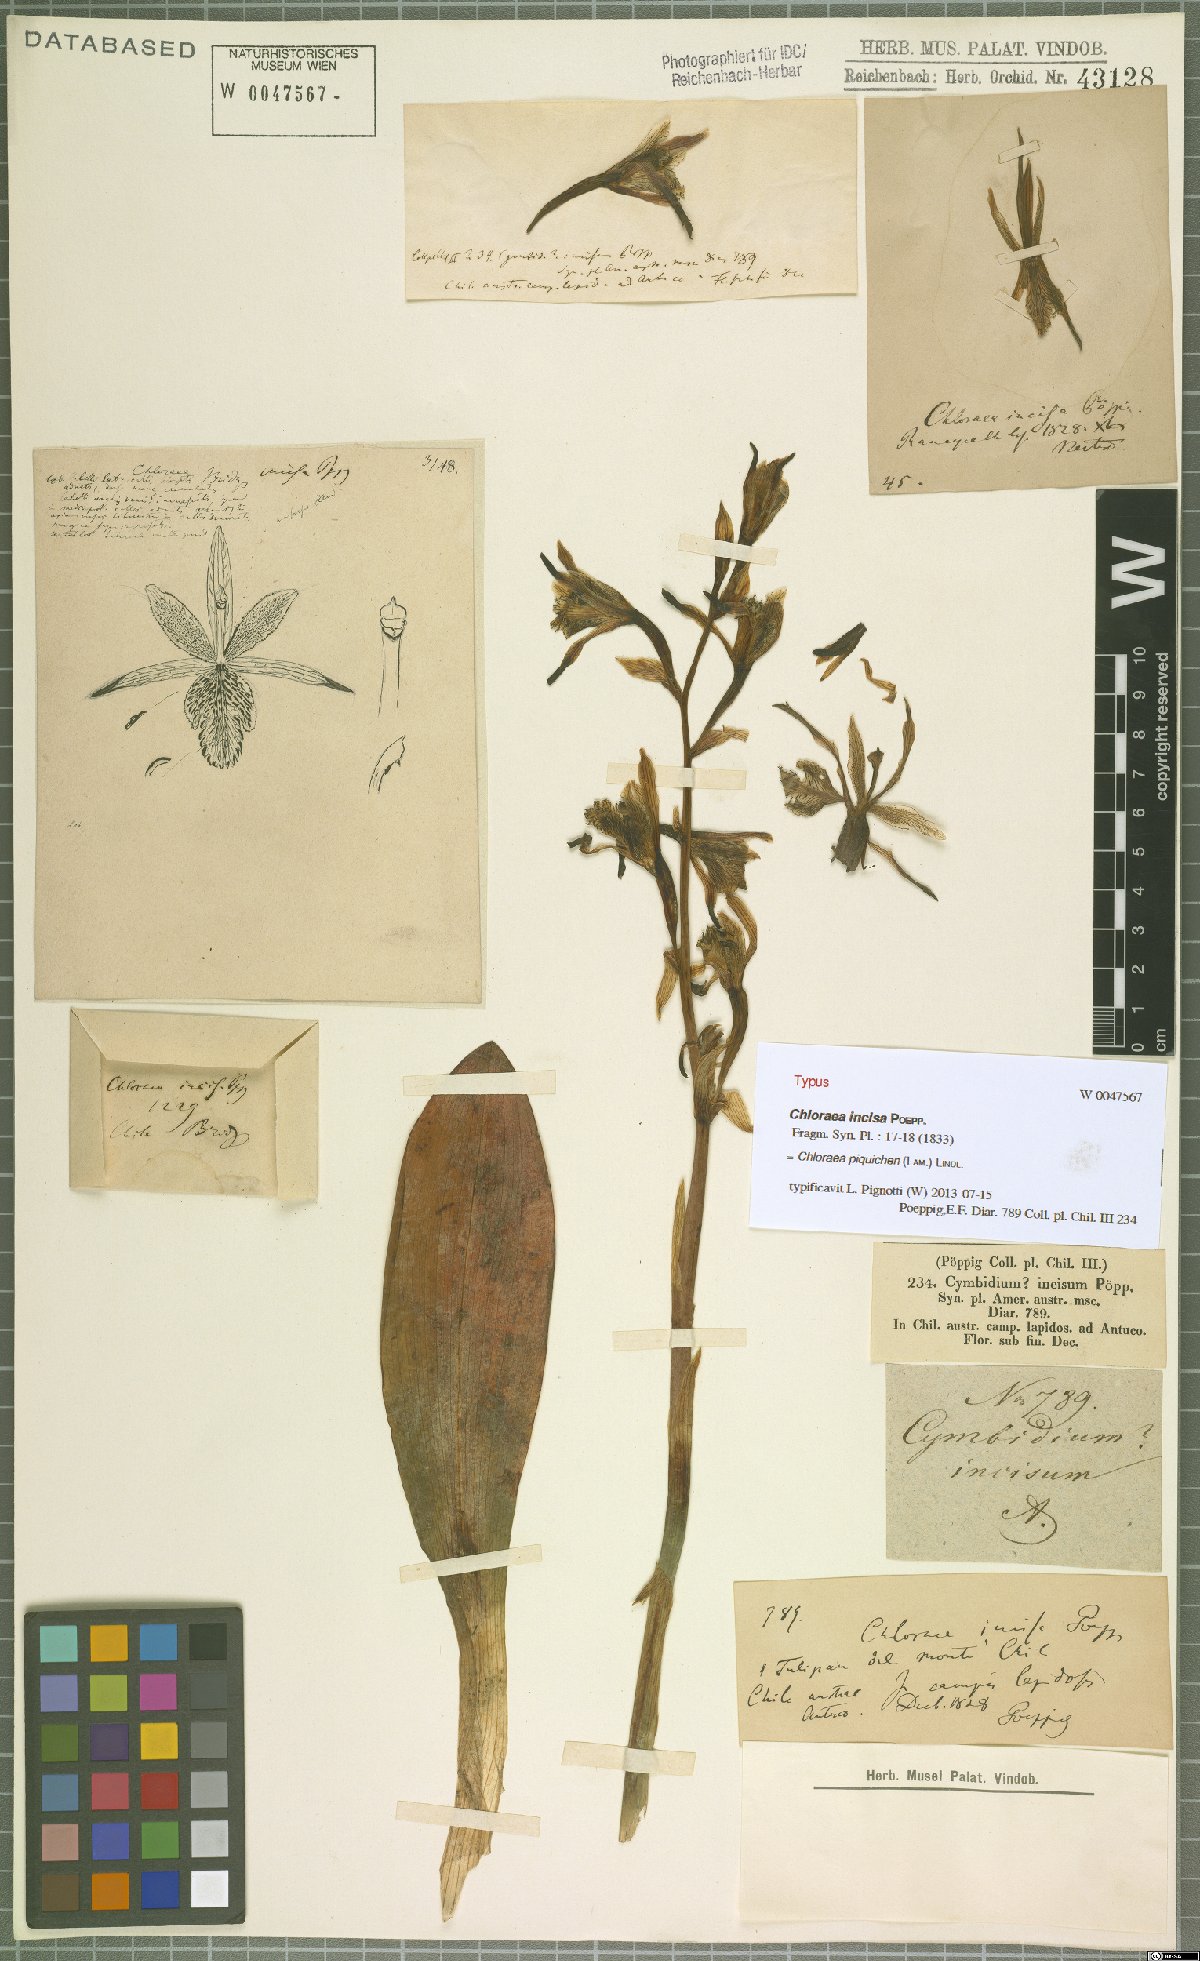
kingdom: Plantae
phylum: Tracheophyta
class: Liliopsida
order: Asparagales
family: Orchidaceae
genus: Chloraea
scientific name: Chloraea piquichen
